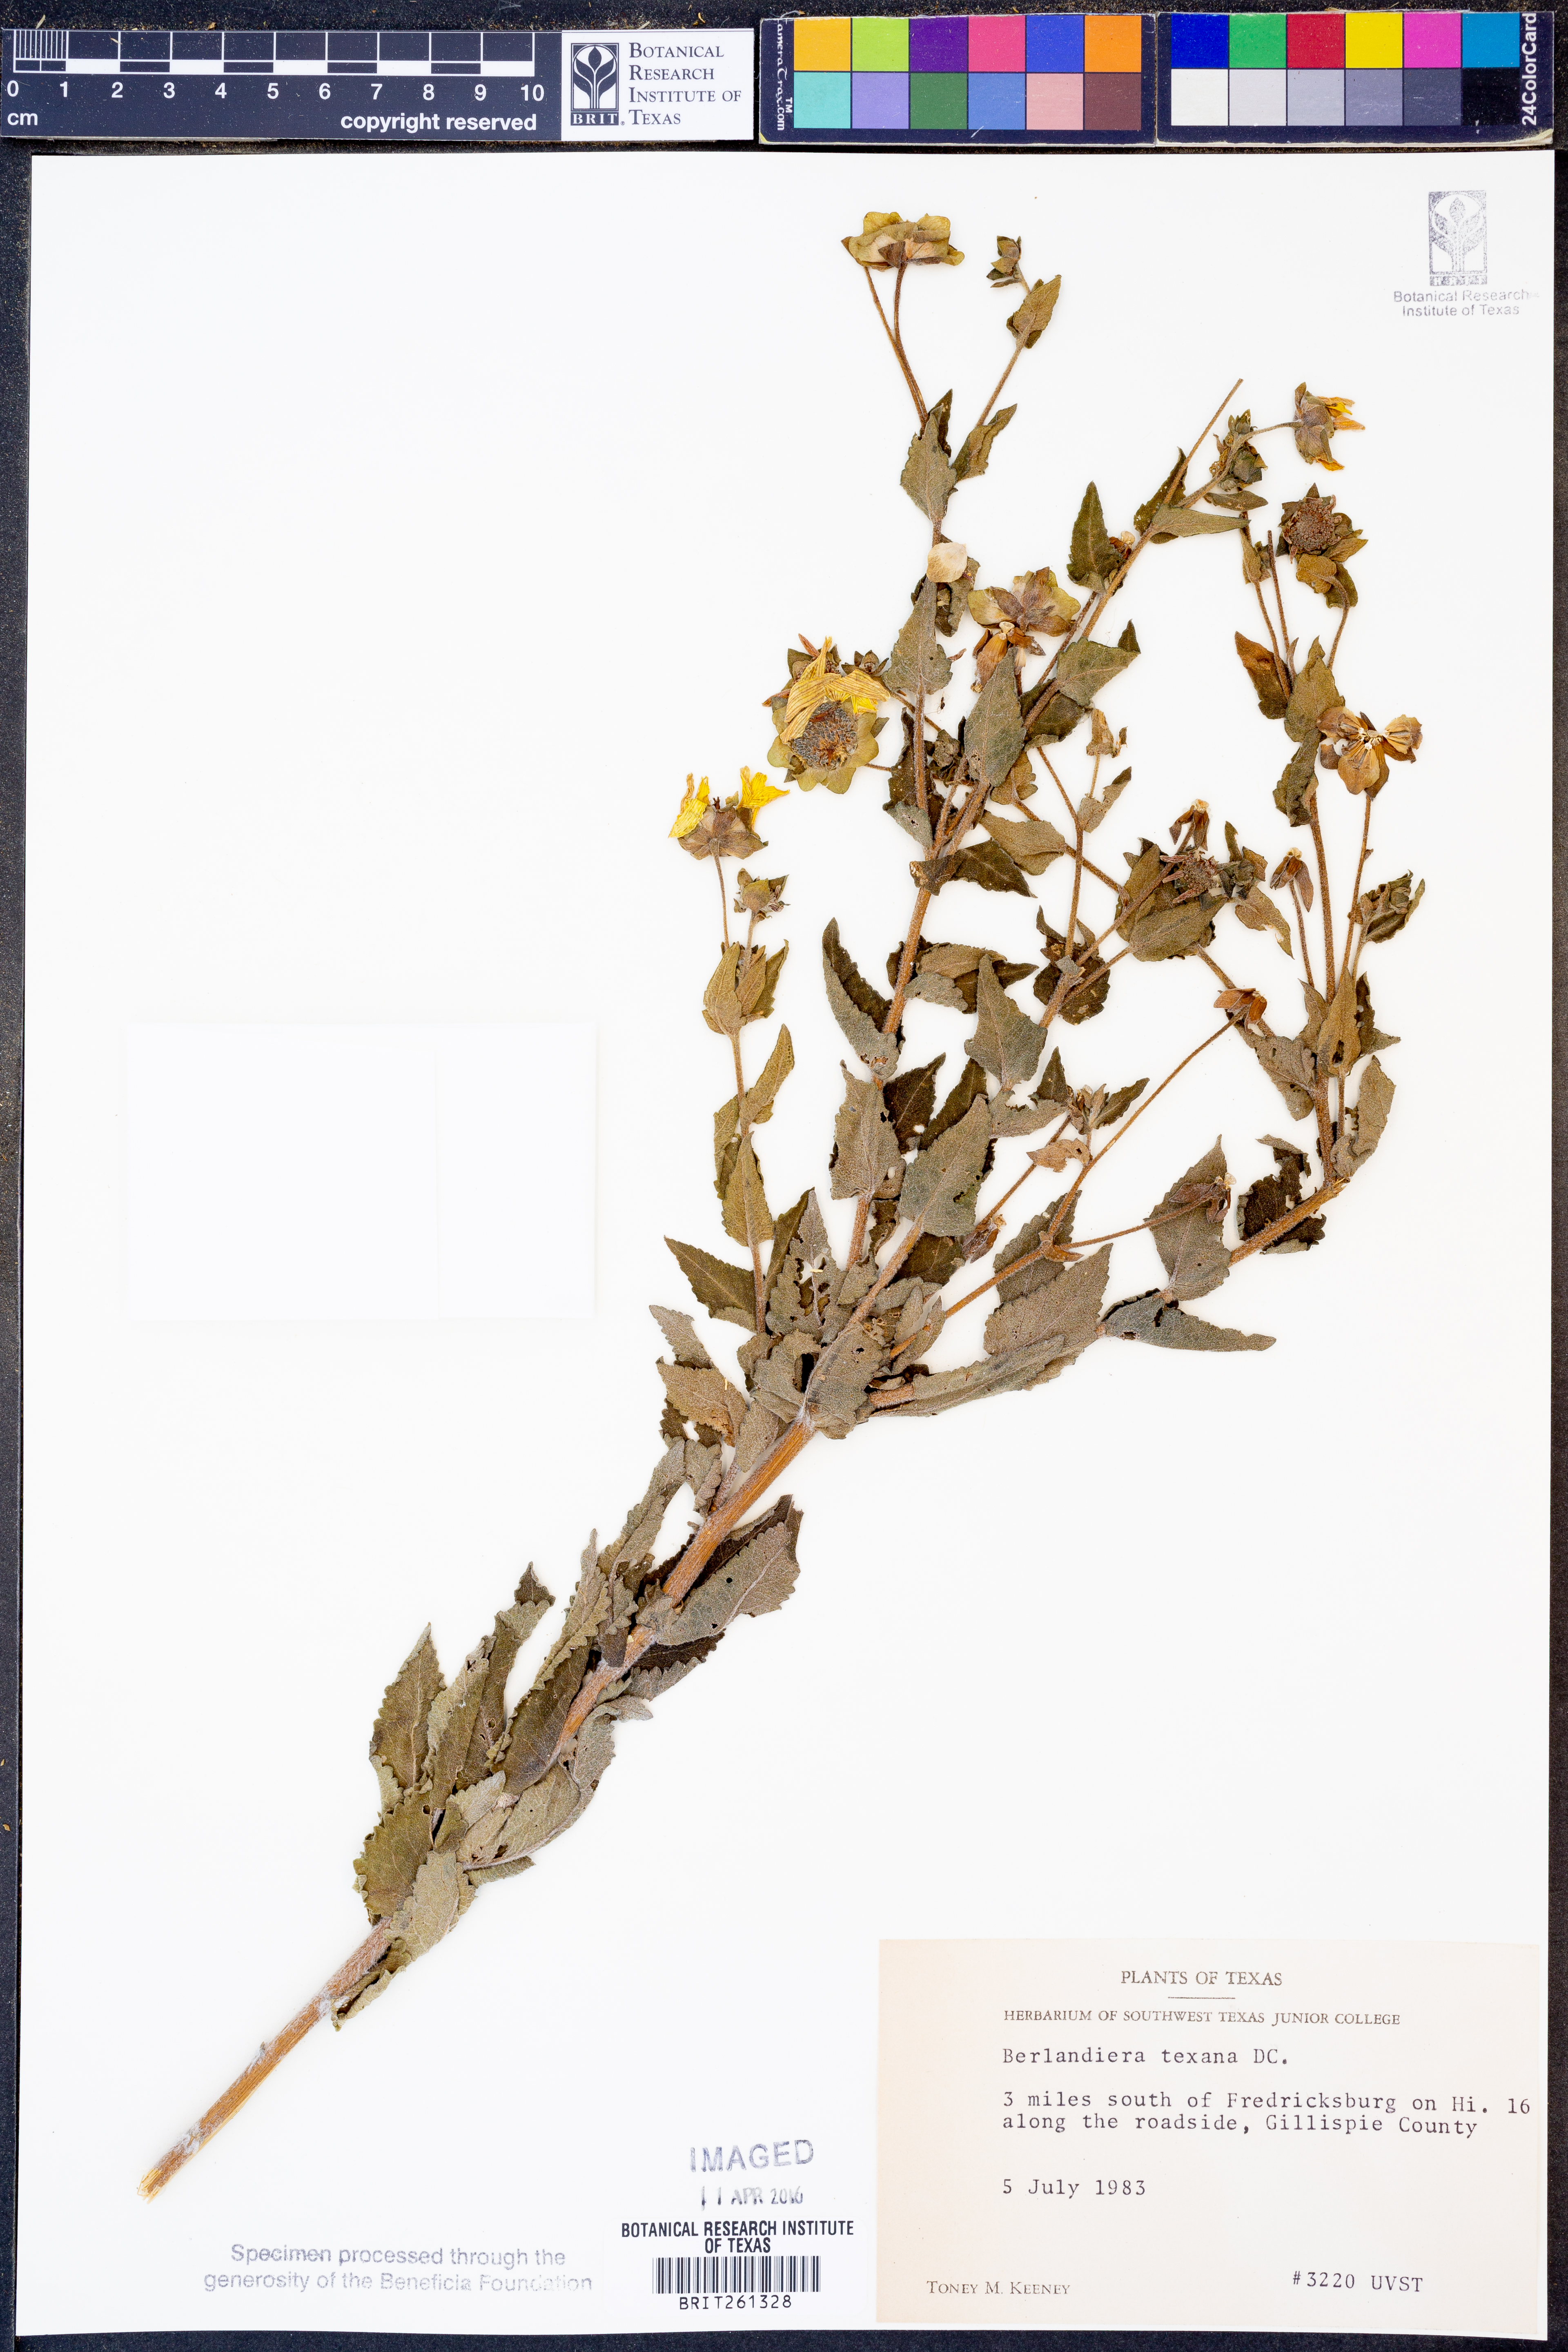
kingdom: Plantae
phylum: Tracheophyta
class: Magnoliopsida
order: Asterales
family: Asteraceae
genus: Berlandiera
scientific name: Berlandiera texana
